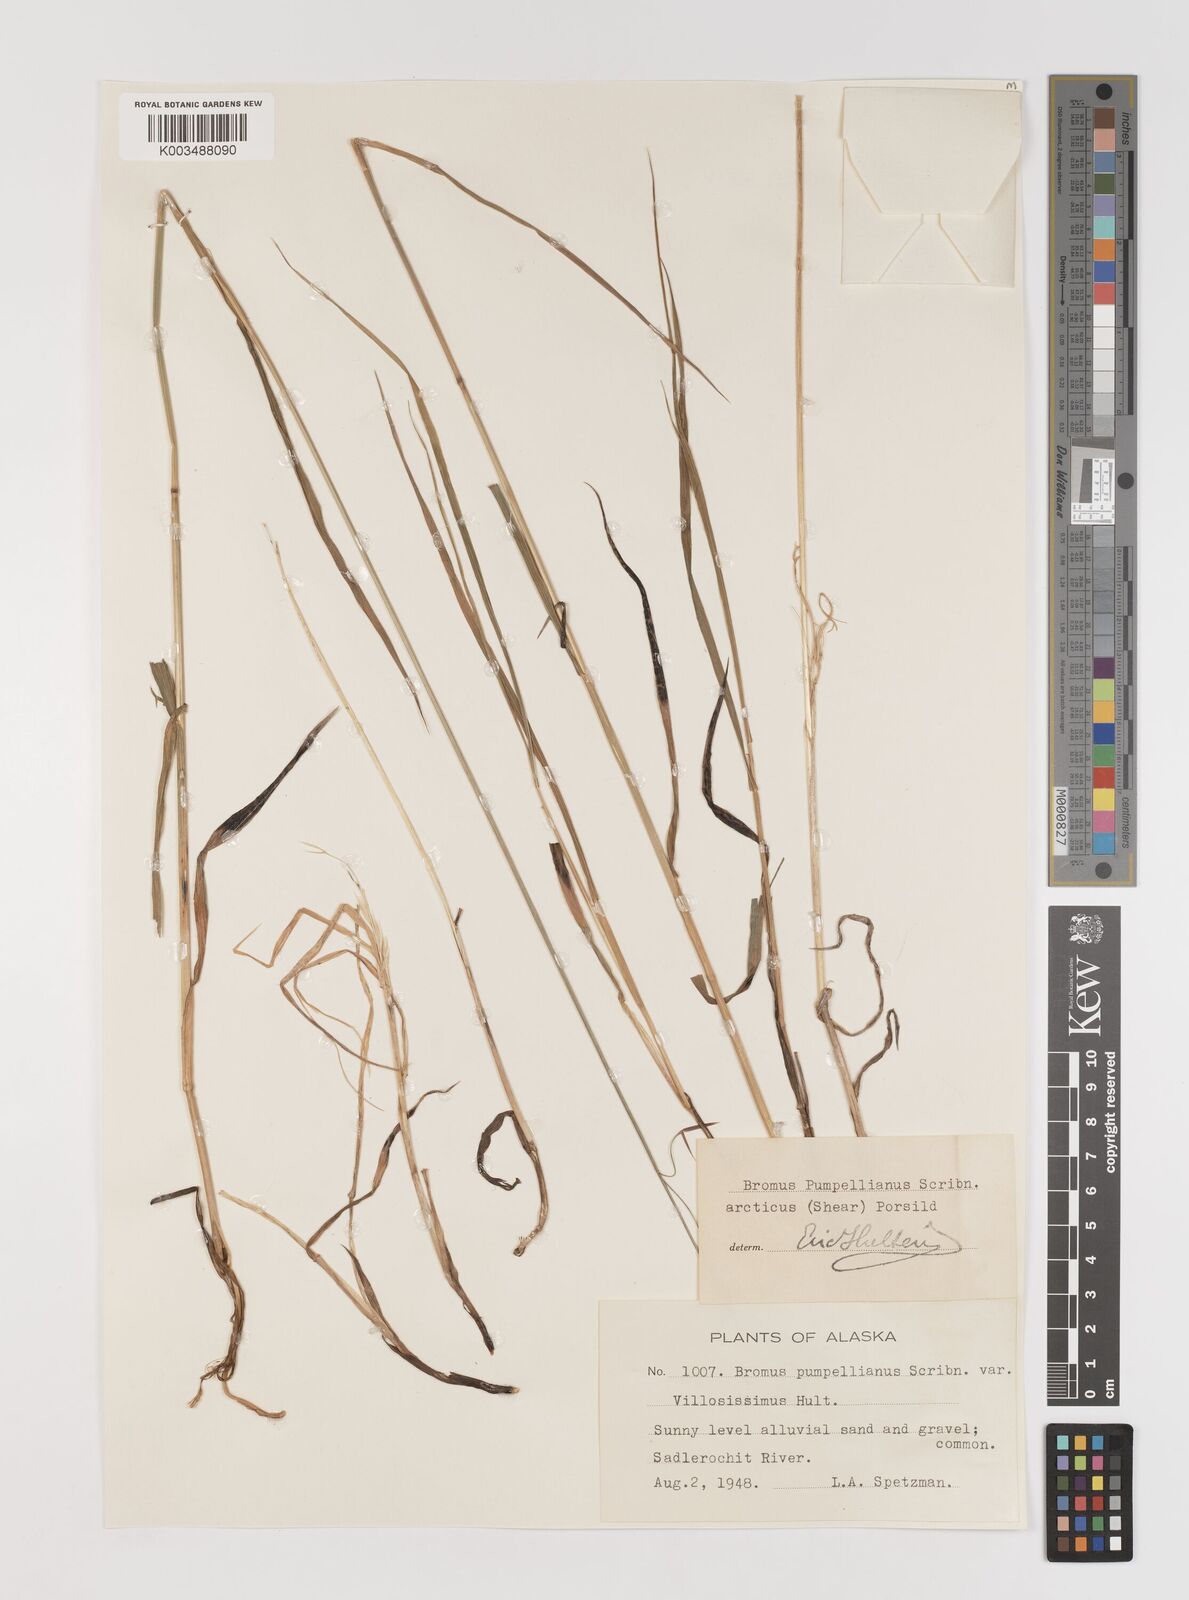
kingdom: Plantae
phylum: Tracheophyta
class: Liliopsida
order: Poales
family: Poaceae
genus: Bromus
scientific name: Bromus pumpellianus
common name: Pumpelly's brome
